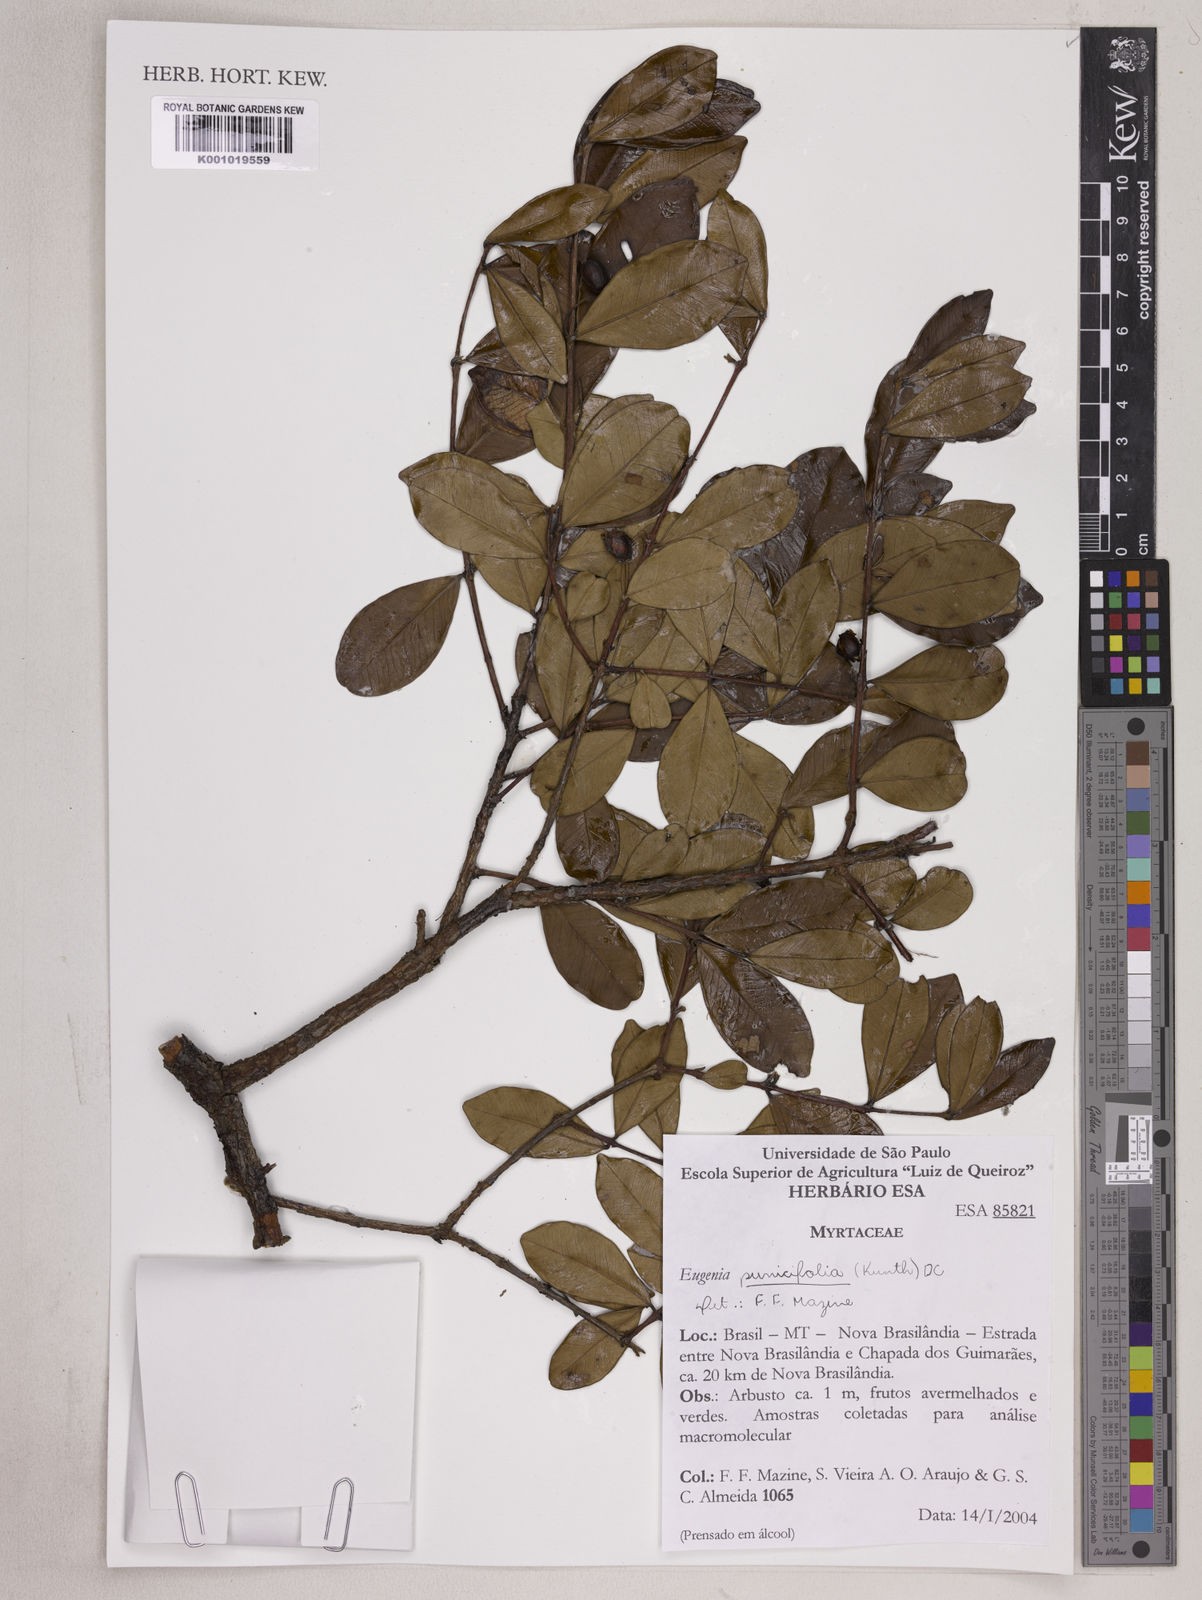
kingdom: Plantae
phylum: Tracheophyta
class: Magnoliopsida
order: Myrtales
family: Myrtaceae
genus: Eugenia
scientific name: Eugenia punicifolia
